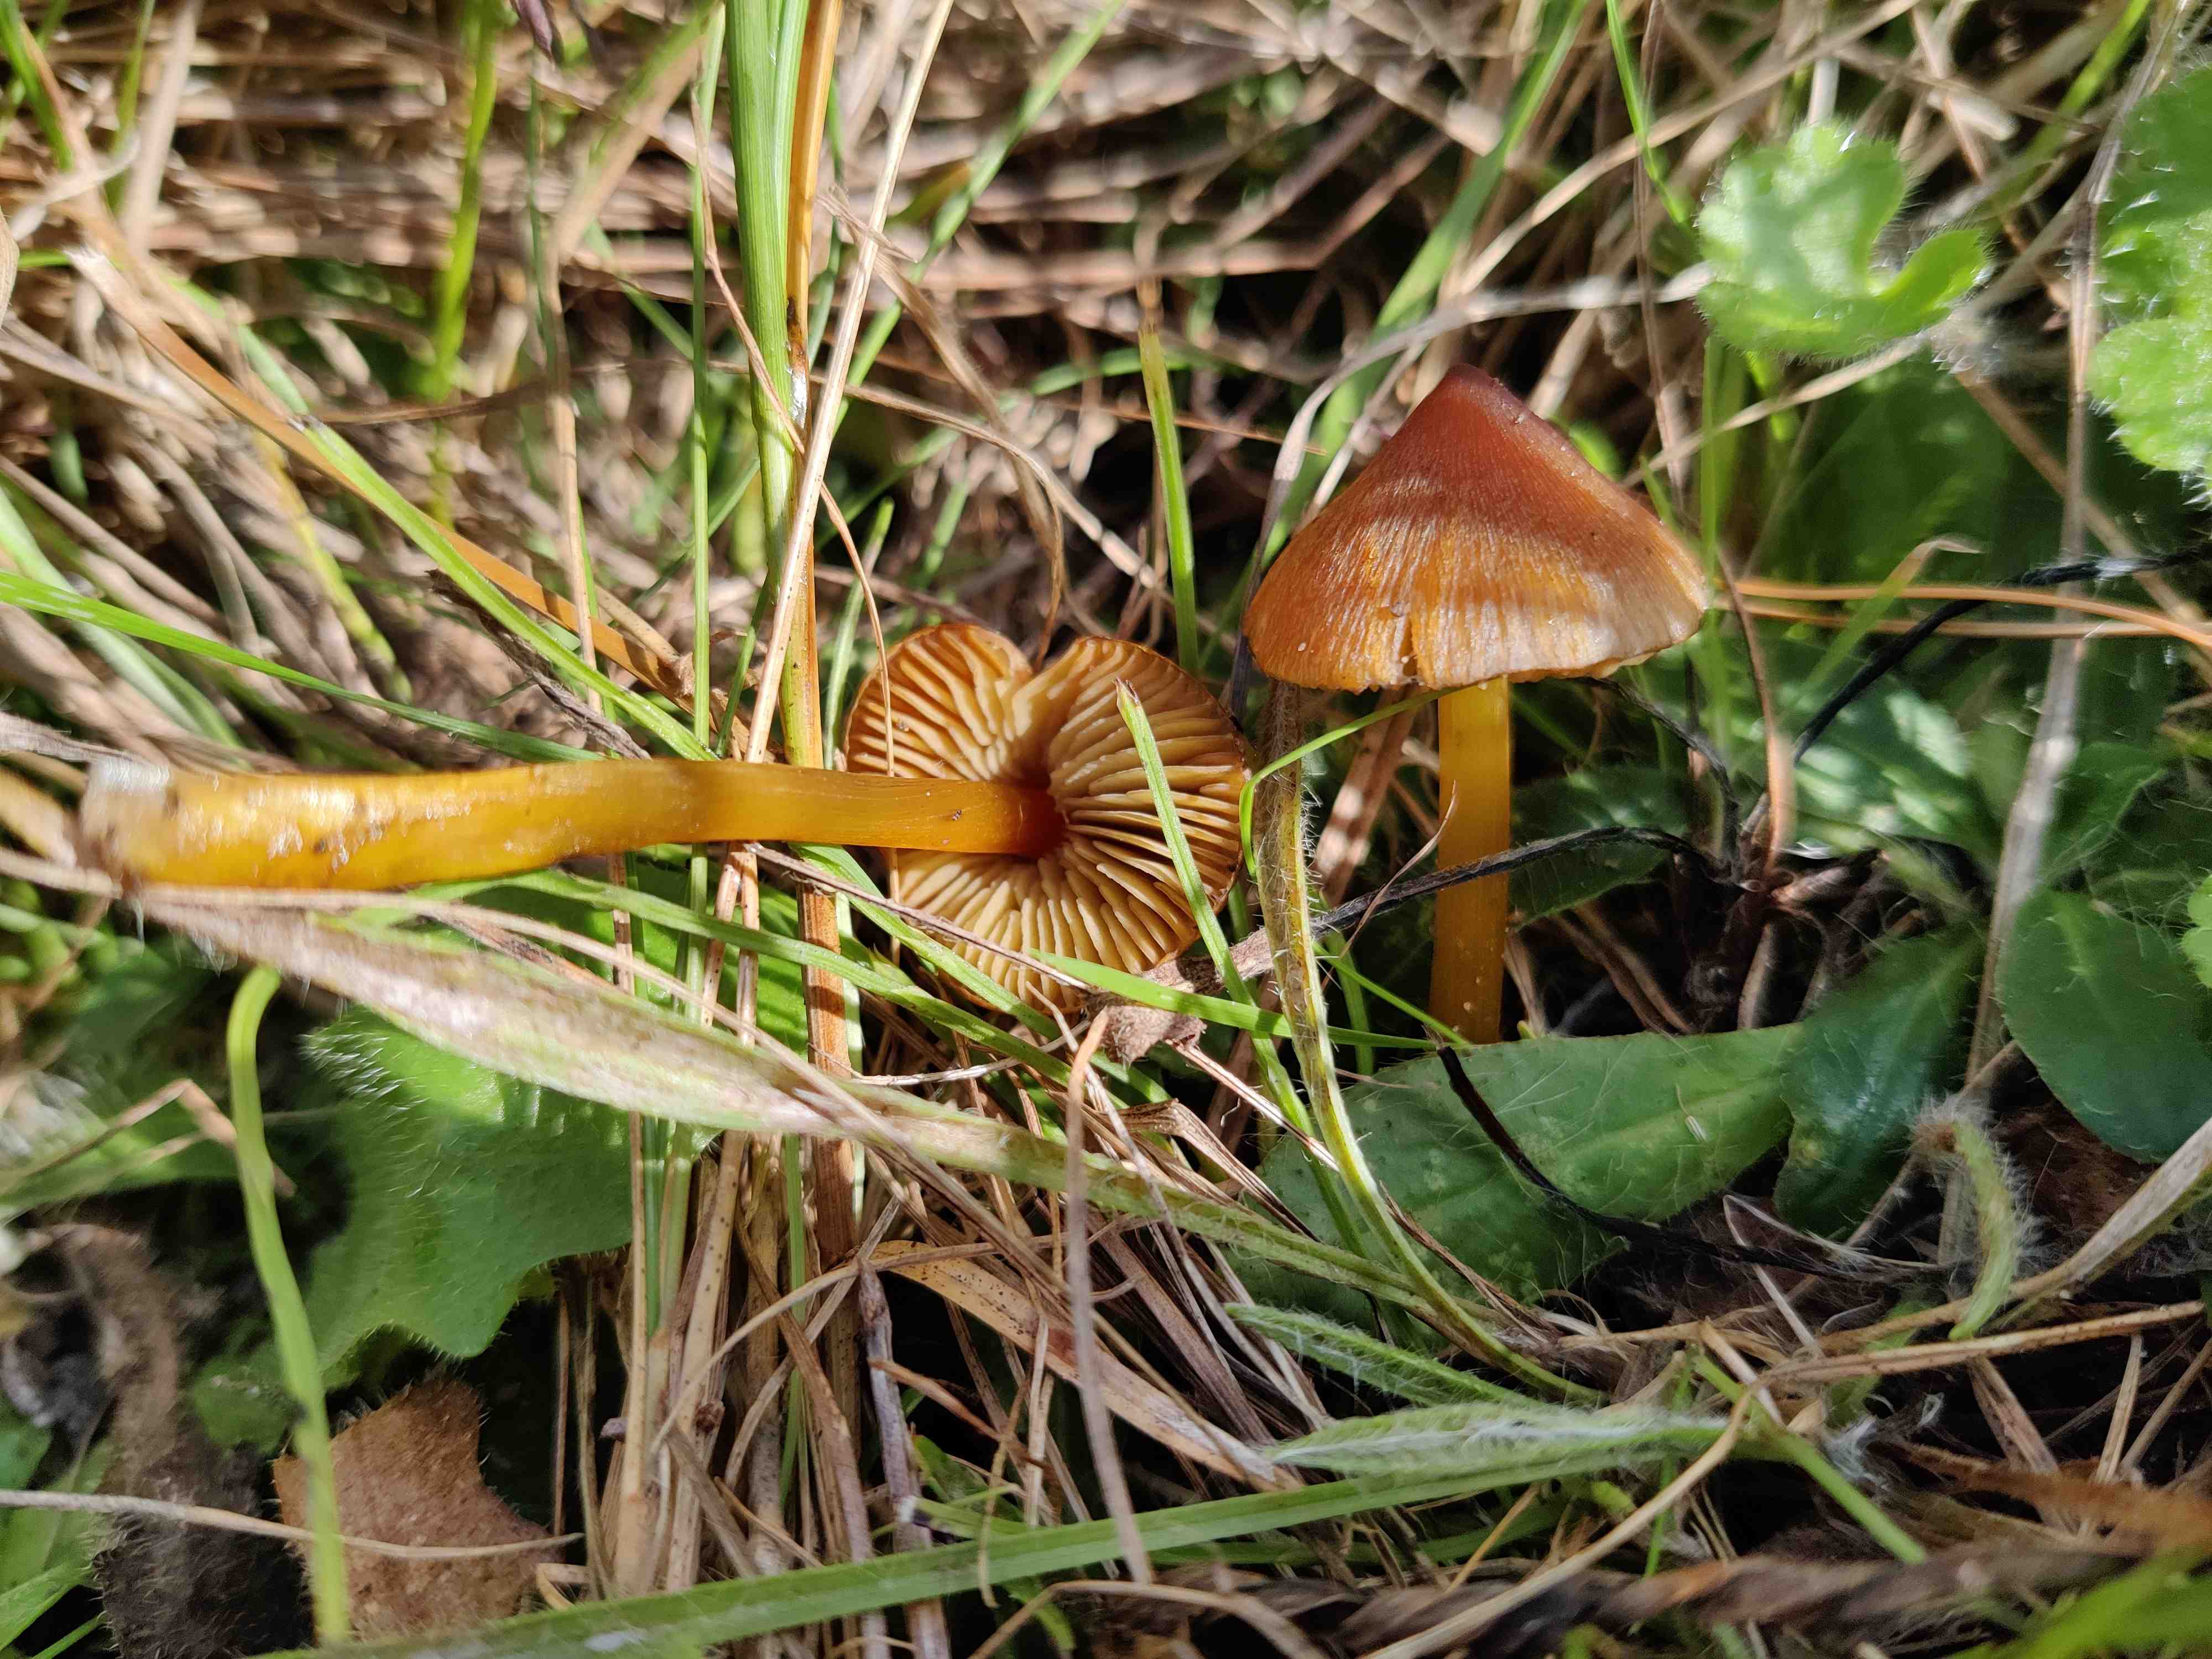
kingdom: Fungi
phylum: Basidiomycota
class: Agaricomycetes
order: Agaricales
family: Hygrophoraceae
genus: Hygrocybe
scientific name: Hygrocybe conica
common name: kegle-vokshat
